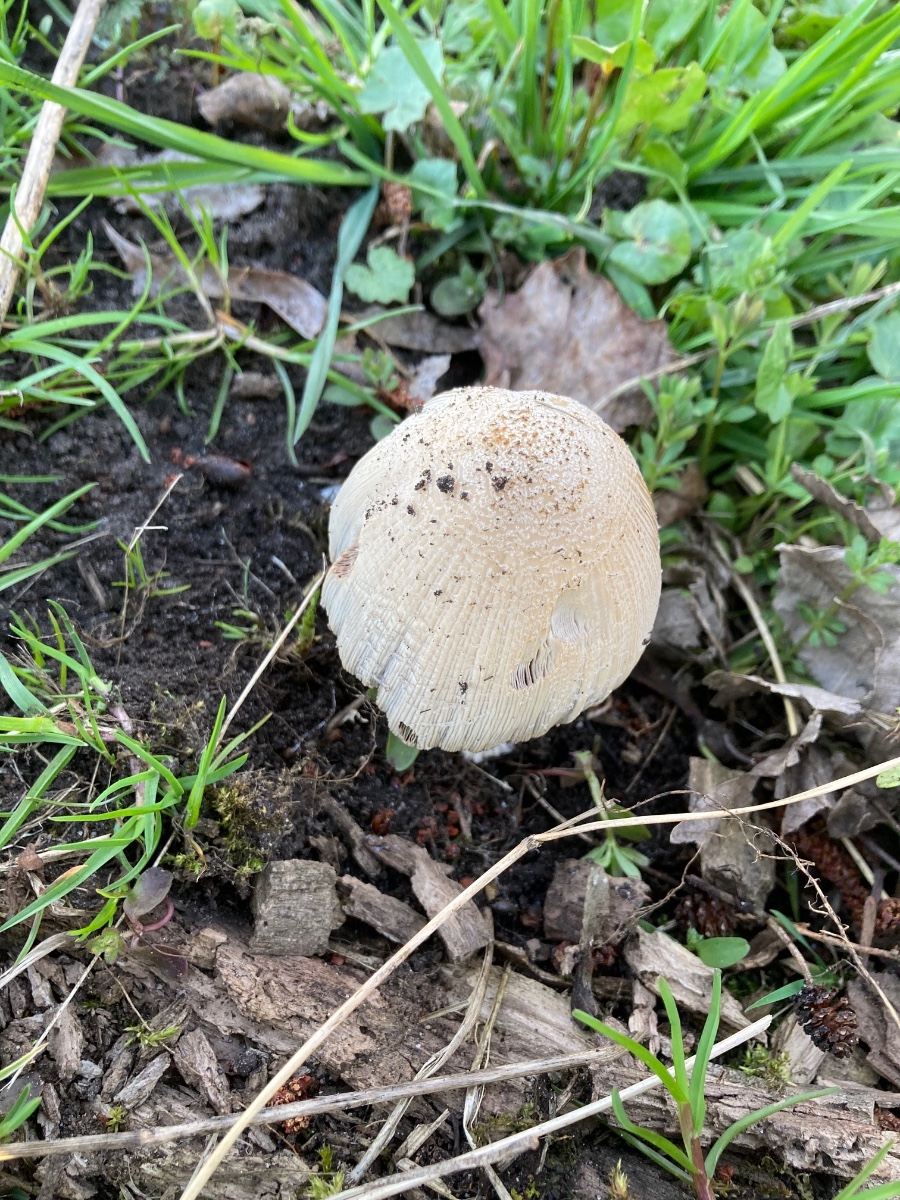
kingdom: Fungi
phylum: Basidiomycota
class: Agaricomycetes
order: Agaricales
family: Psathyrellaceae
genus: Coprinellus
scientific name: Coprinellus domesticus
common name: hus-blækhat
